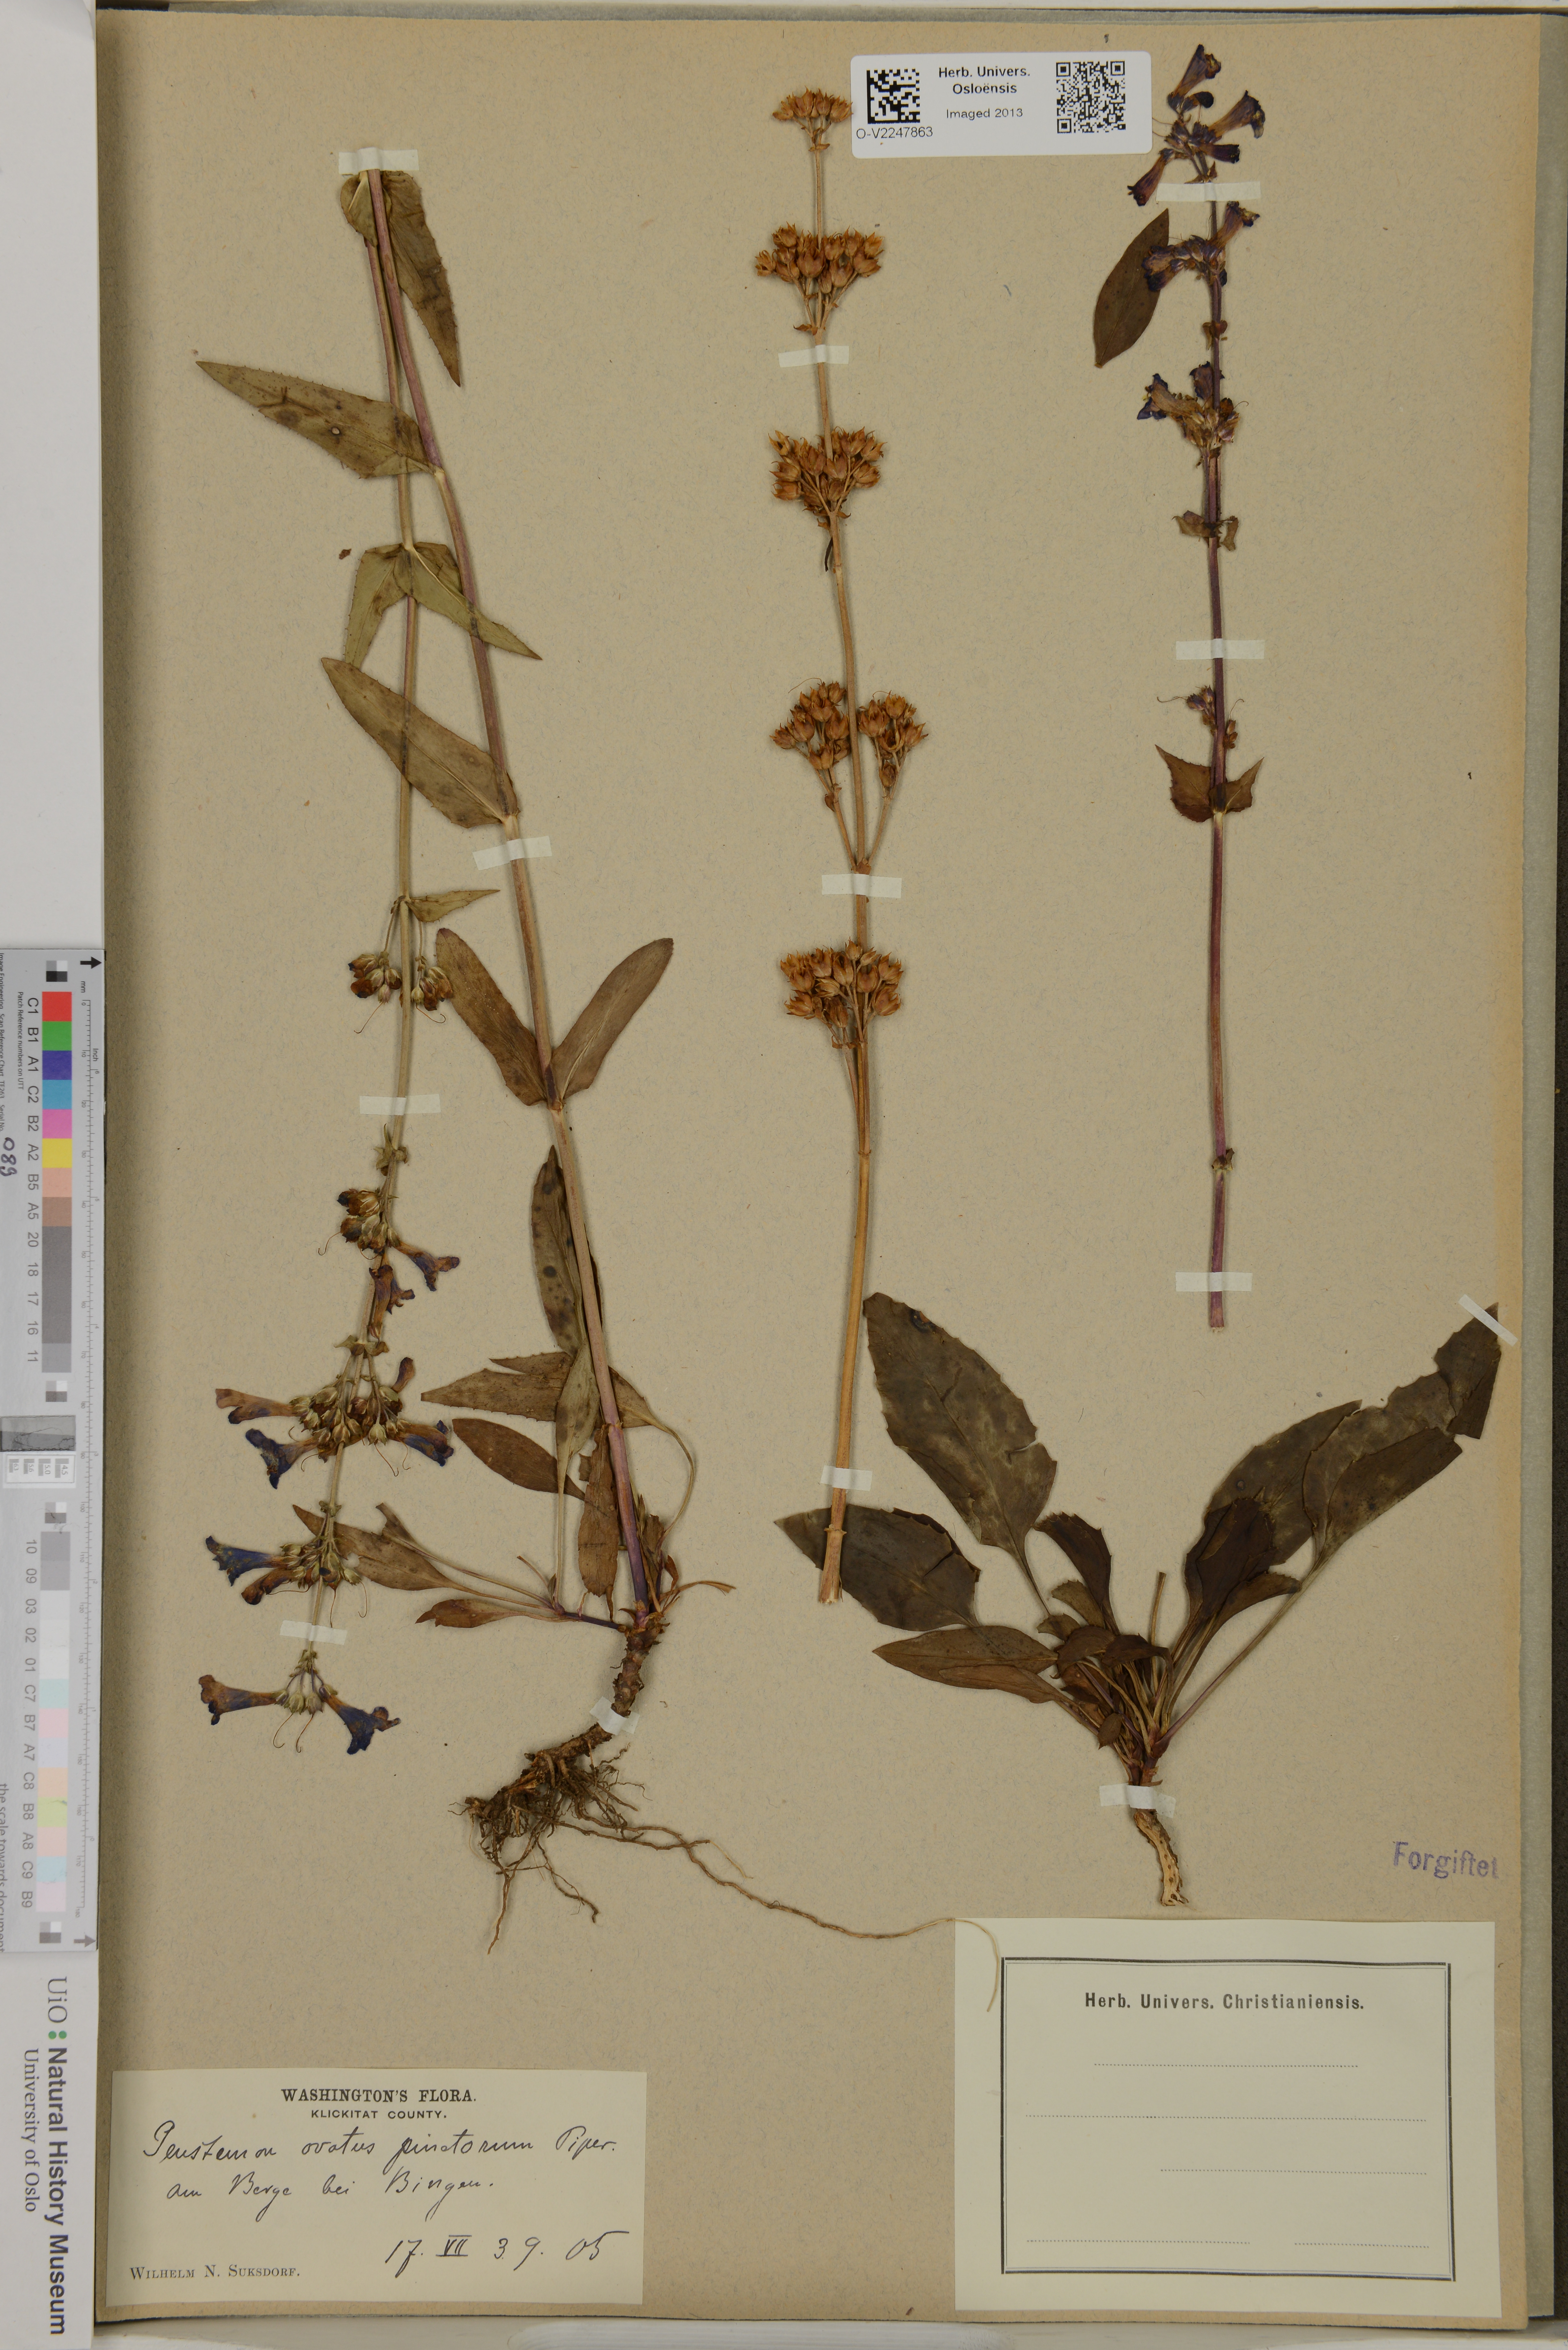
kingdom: Plantae
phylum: Tracheophyta
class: Magnoliopsida
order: Lamiales
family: Plantaginaceae
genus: Penstemon
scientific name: Penstemon ovatus
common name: Broad-leaved beardtongue
